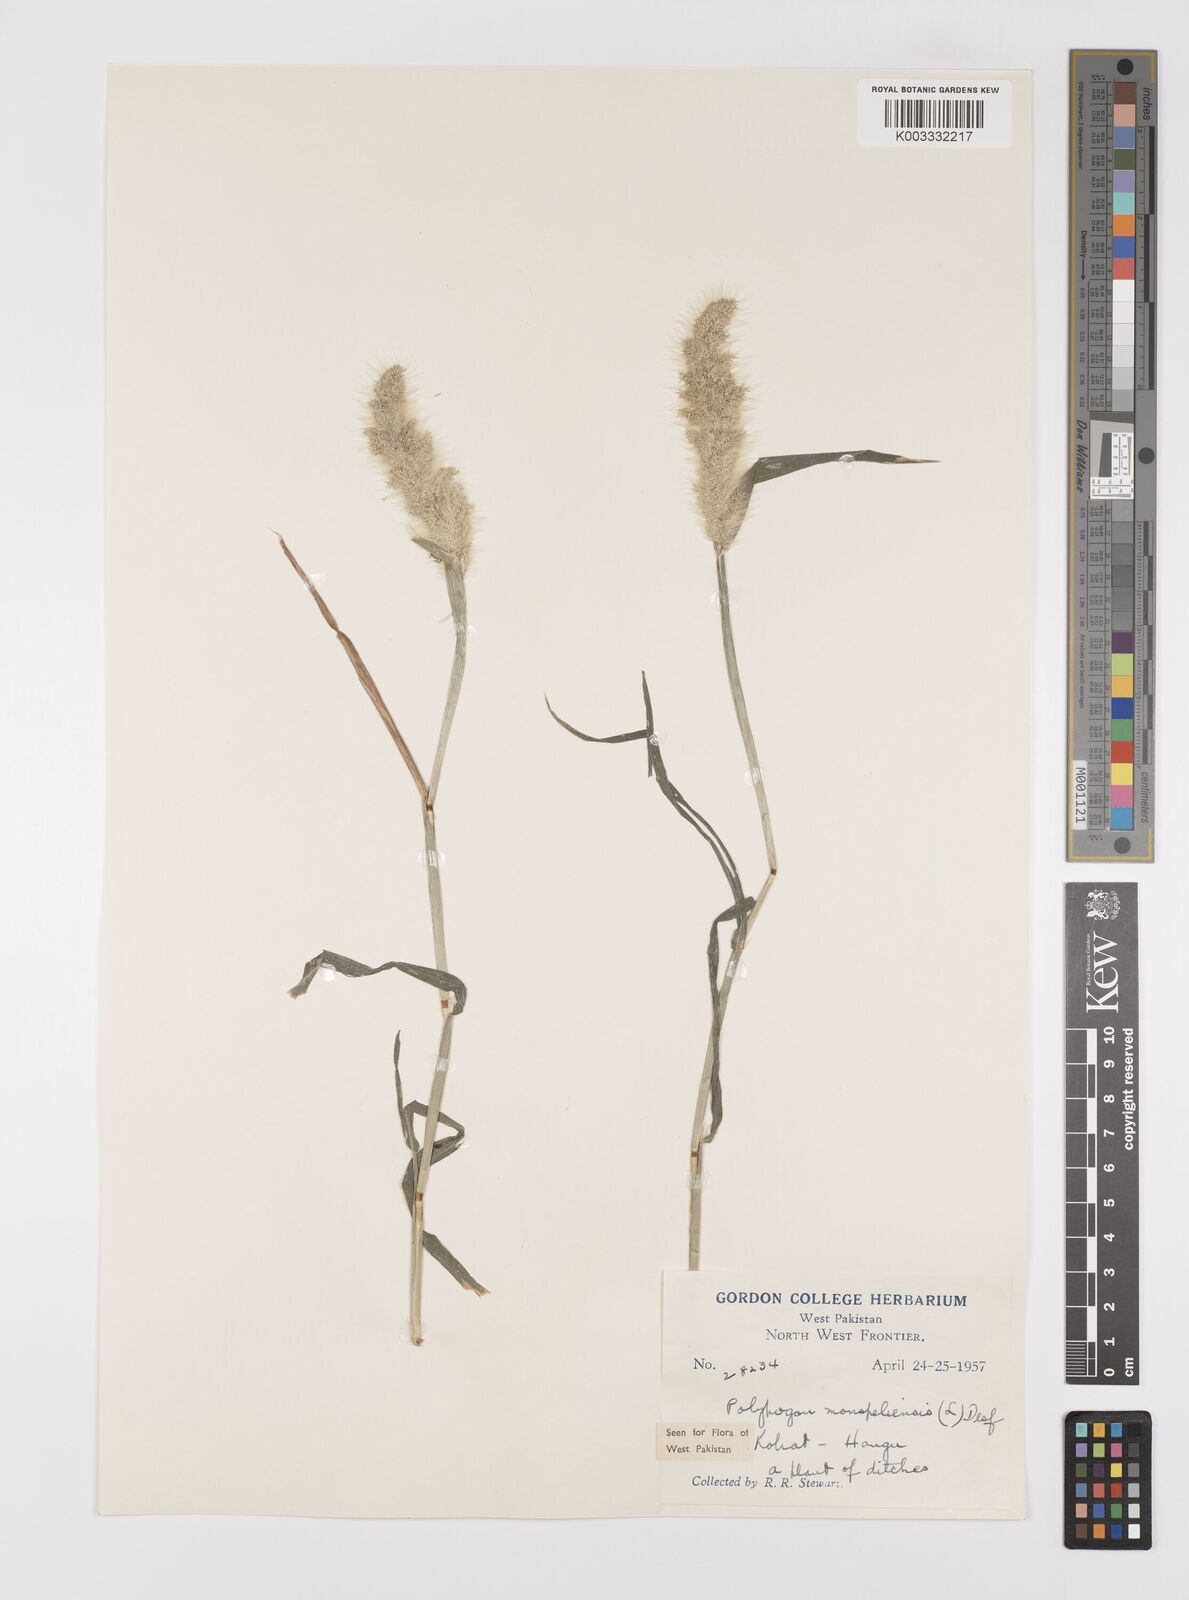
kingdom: Plantae
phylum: Tracheophyta
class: Liliopsida
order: Poales
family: Poaceae
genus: Polypogon
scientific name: Polypogon monspeliensis
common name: Annual rabbitsfoot grass
